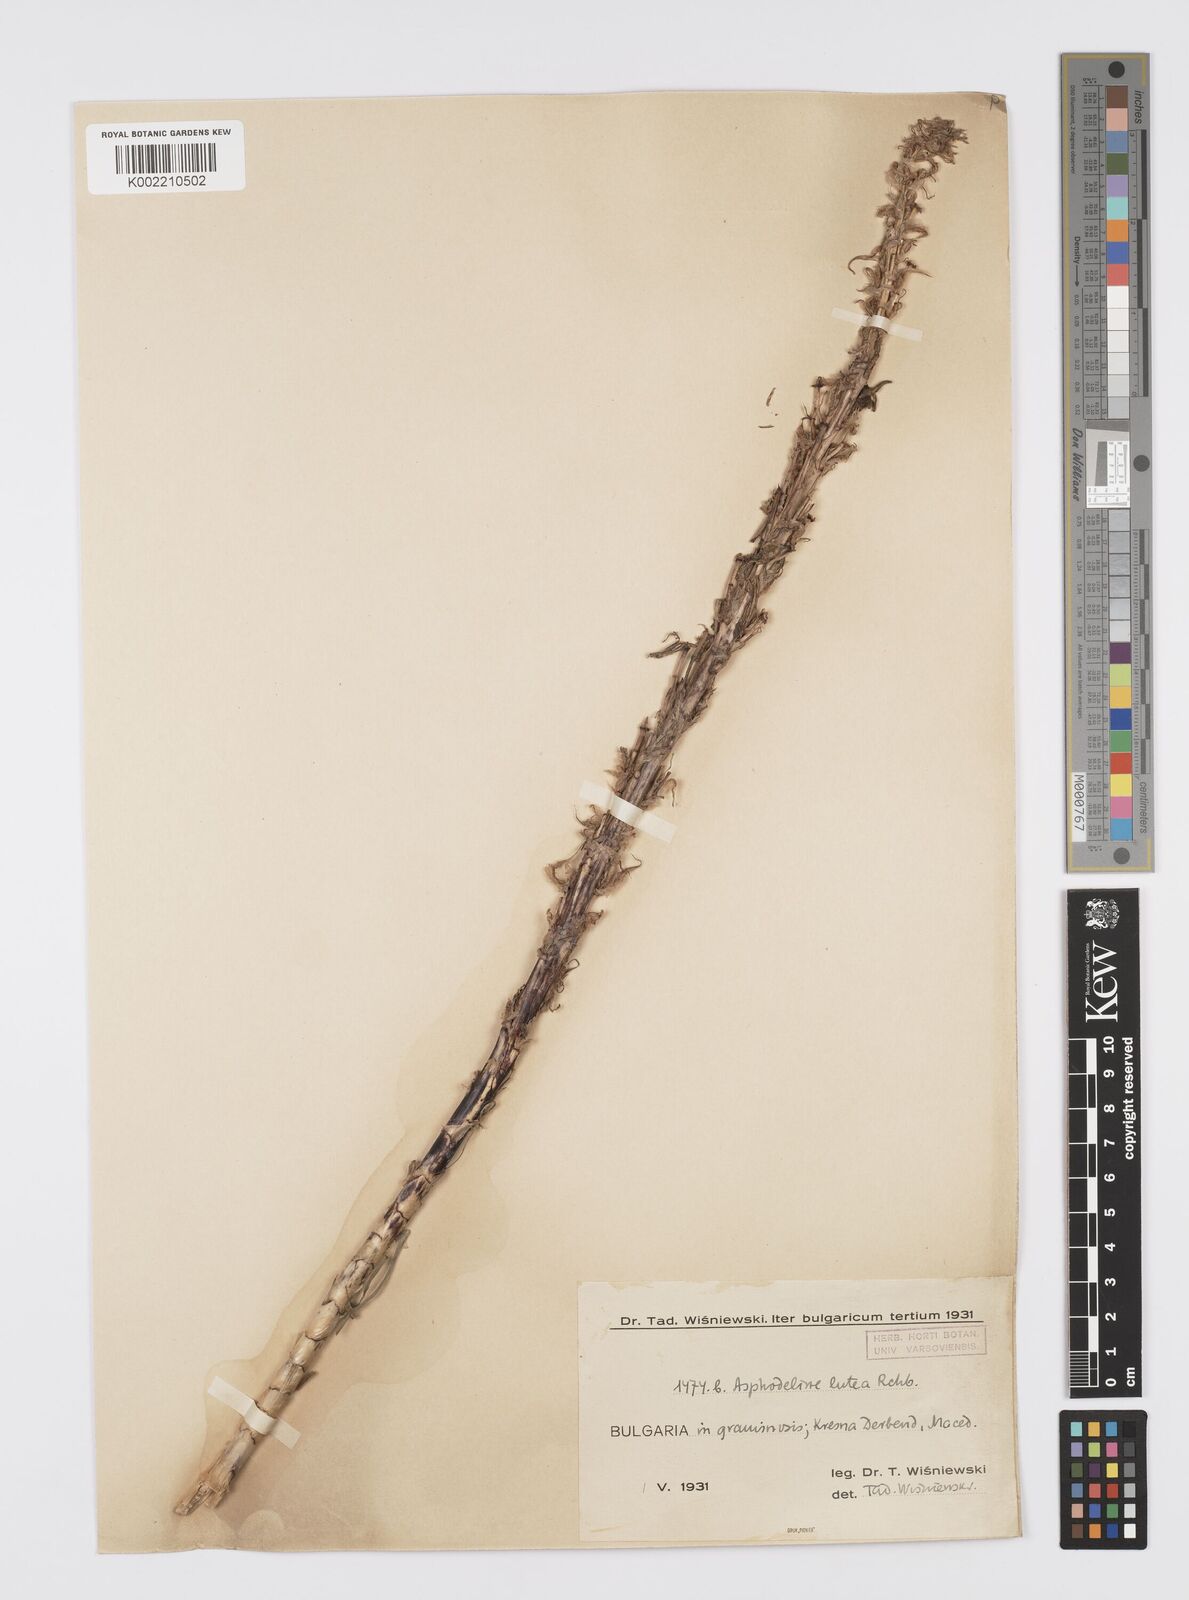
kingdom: Plantae
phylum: Tracheophyta
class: Liliopsida
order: Asparagales
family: Asphodelaceae
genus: Asphodeline
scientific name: Asphodeline lutea
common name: Yellow asphodel
